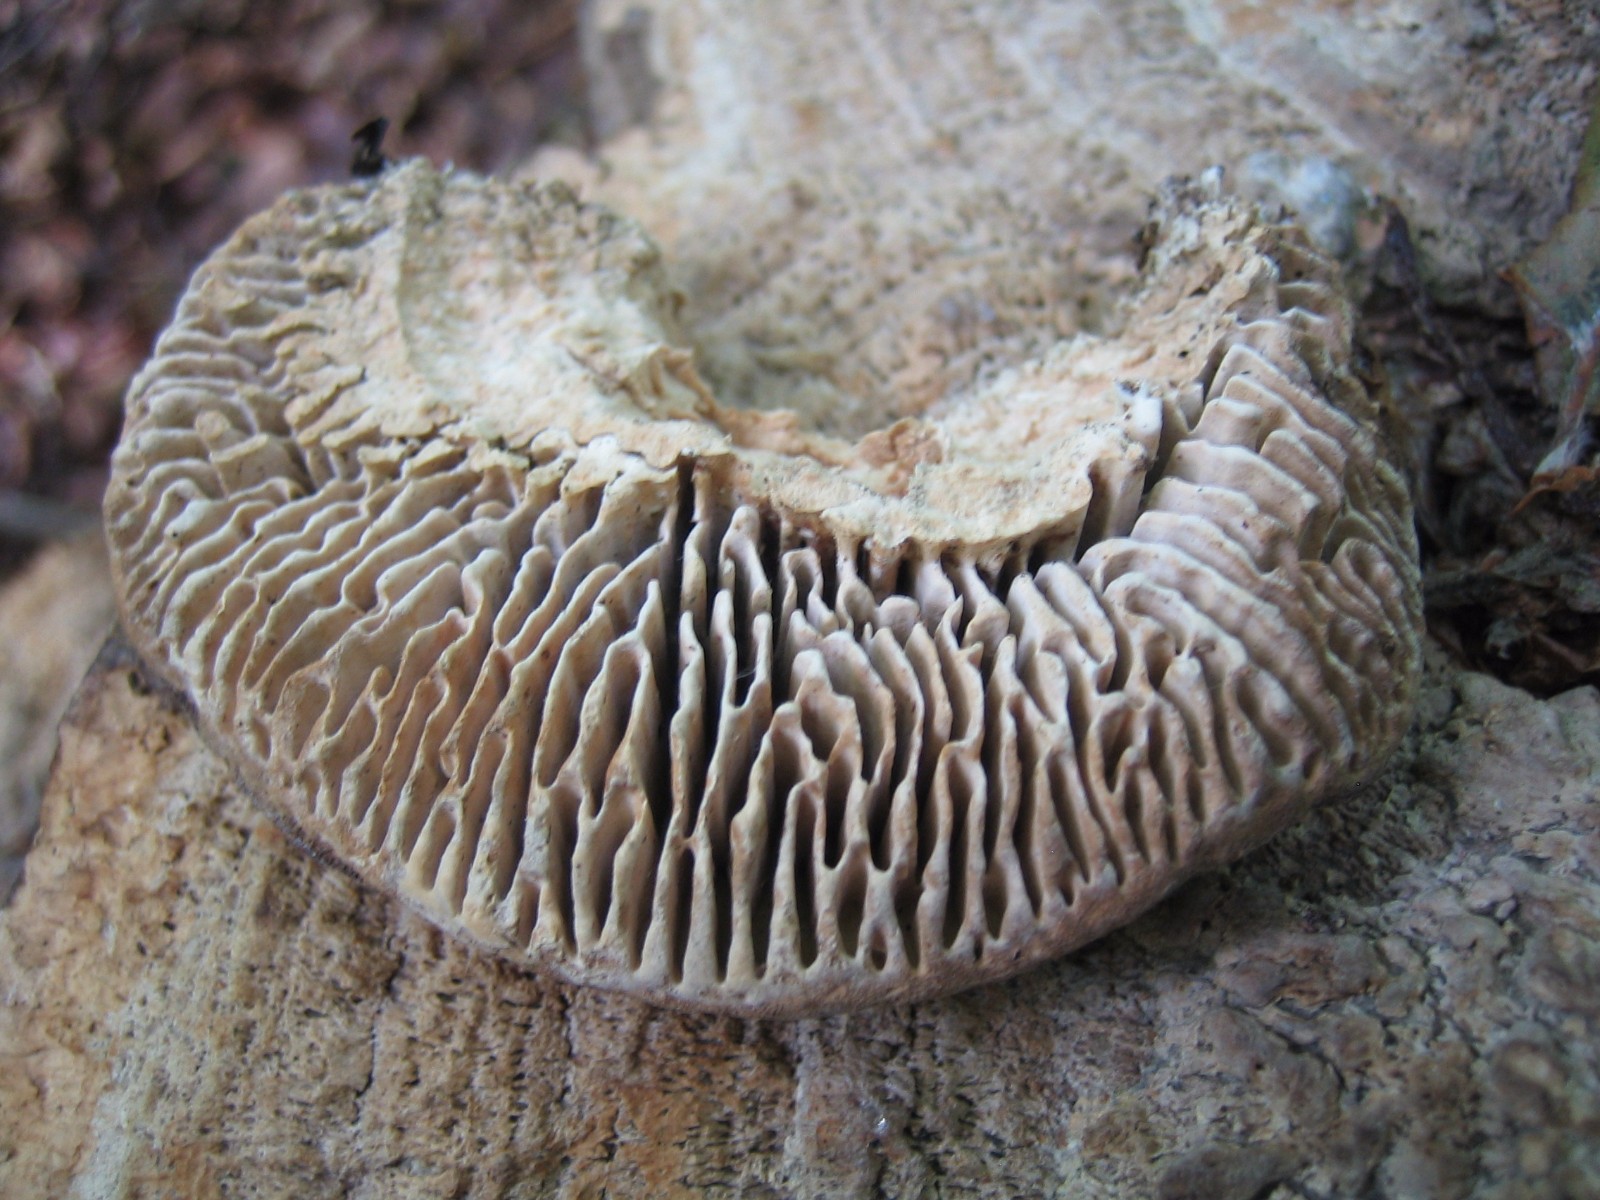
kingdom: Fungi
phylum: Basidiomycota
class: Agaricomycetes
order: Polyporales
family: Fomitopsidaceae
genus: Daedalea
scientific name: Daedalea quercina
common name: ege-labyrintsvamp
